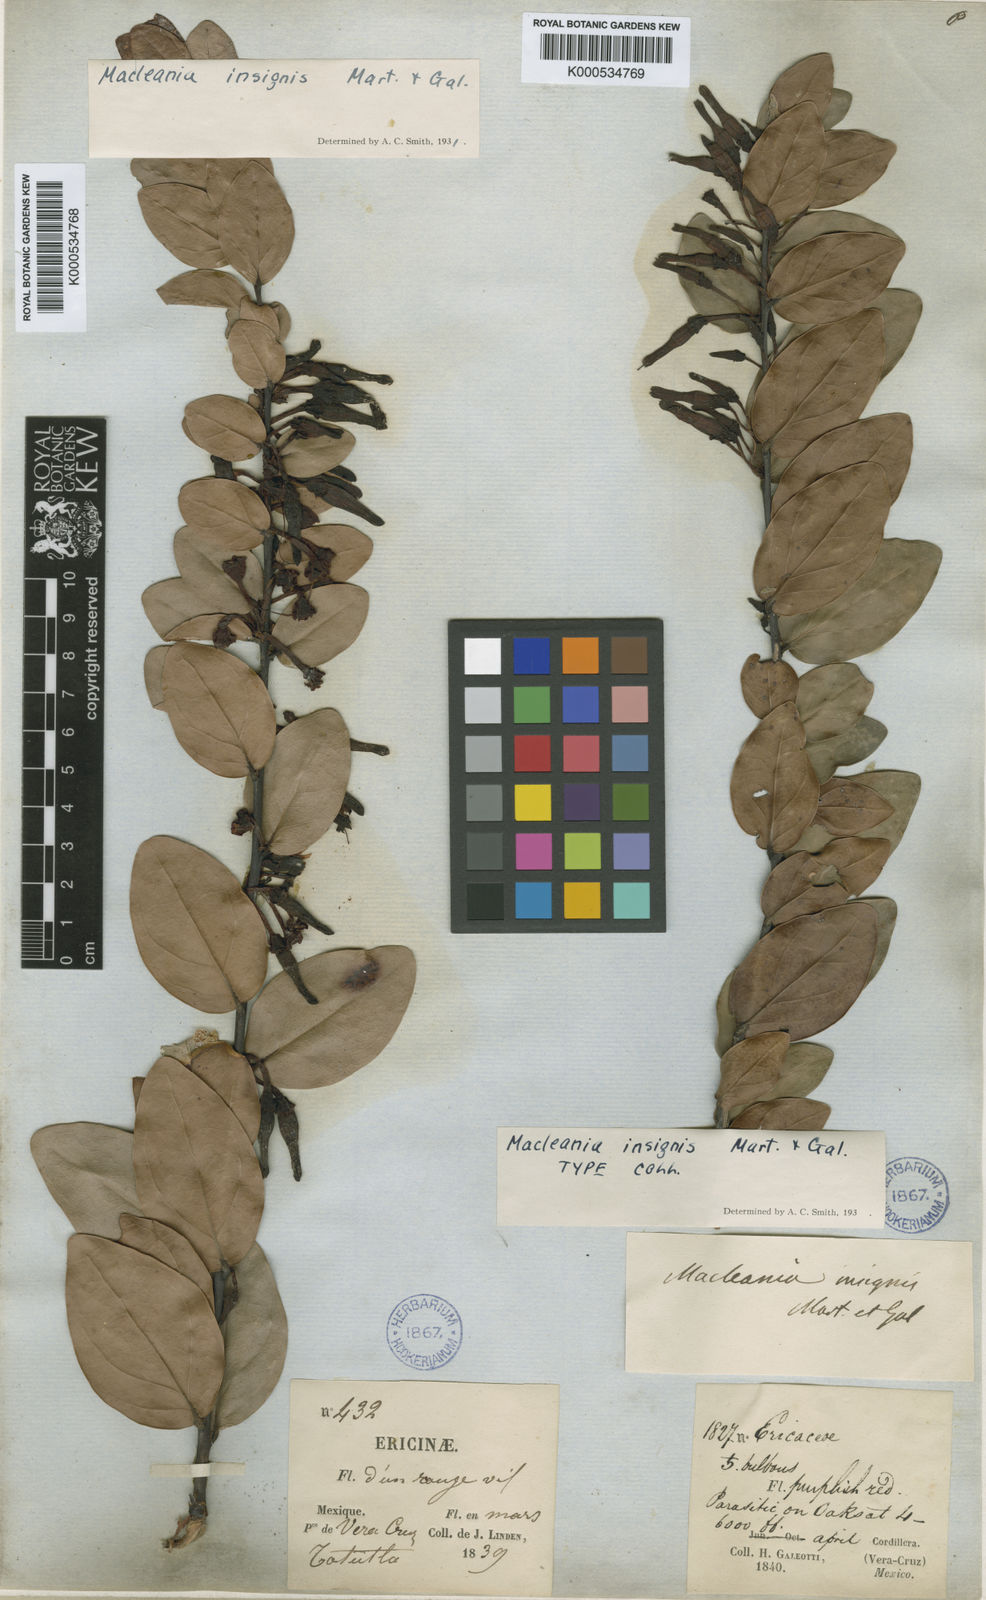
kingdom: Plantae
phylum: Tracheophyta
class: Magnoliopsida
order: Ericales
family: Ericaceae
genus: Macleania
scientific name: Macleania insignis
